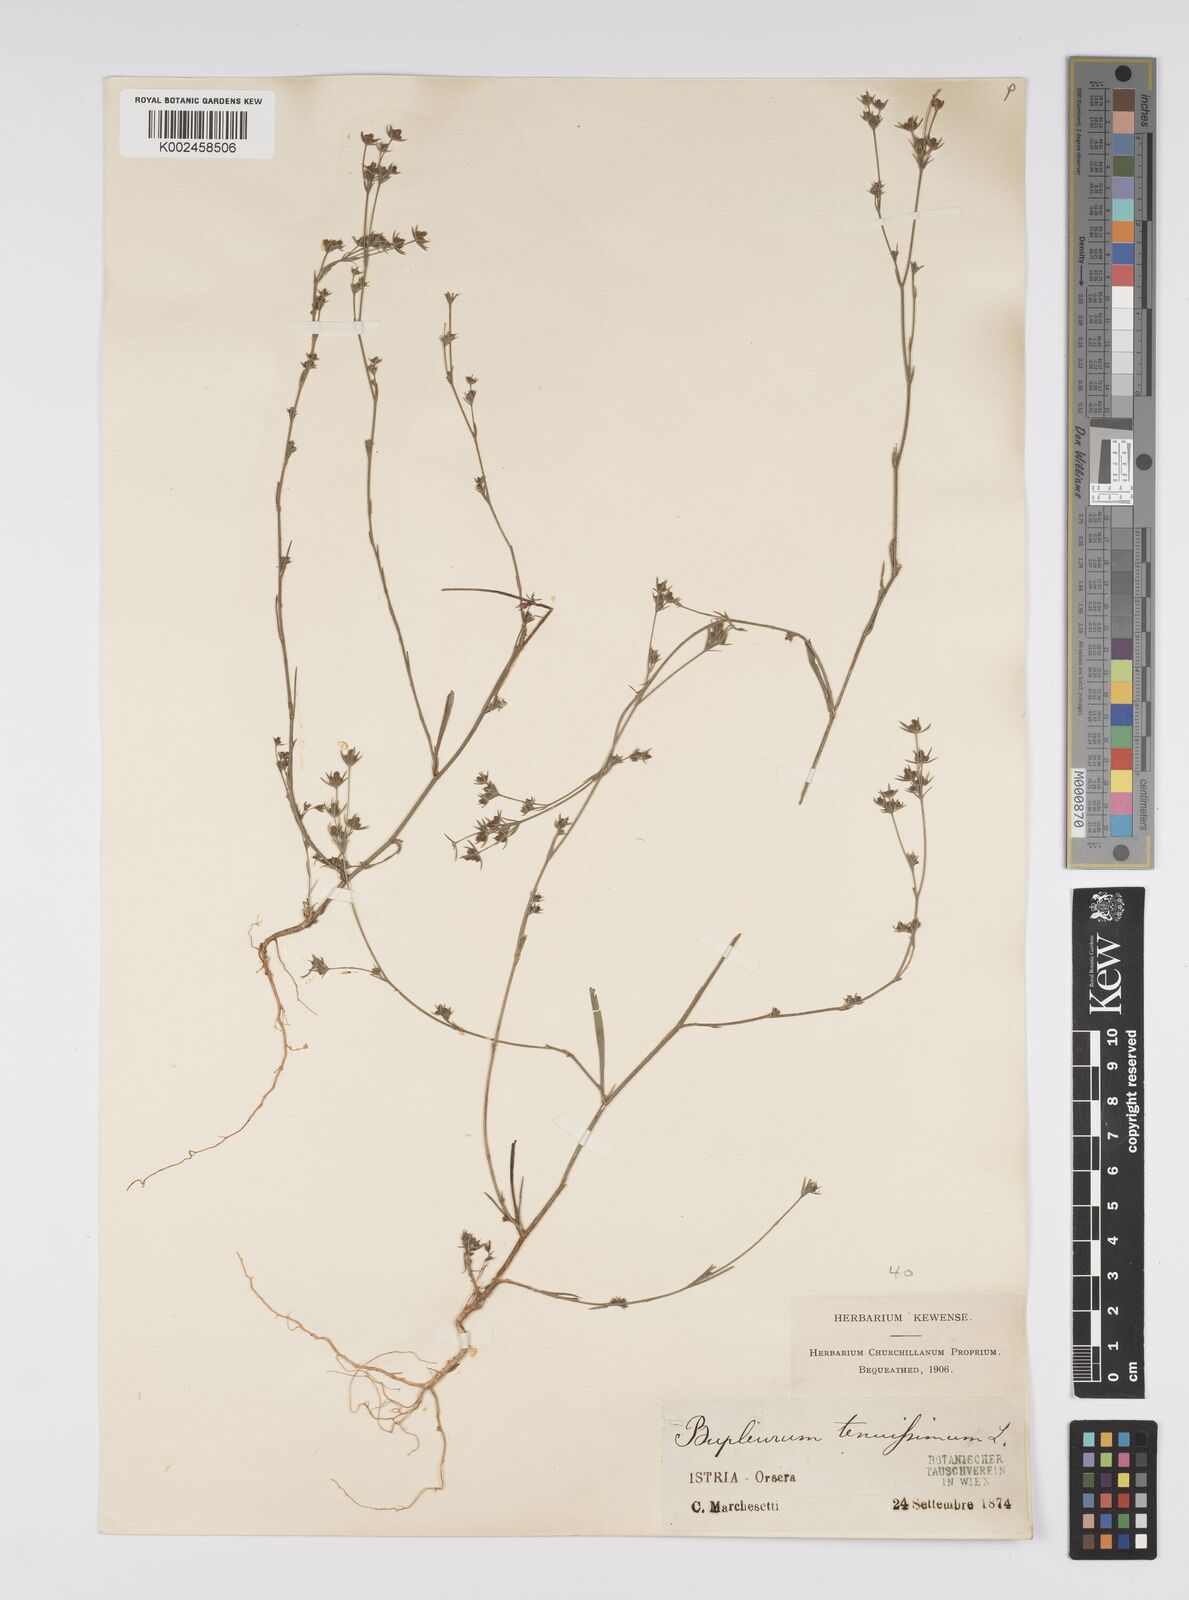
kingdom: Plantae
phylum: Tracheophyta
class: Magnoliopsida
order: Apiales
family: Apiaceae
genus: Bupleurum
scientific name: Bupleurum tenuissimum
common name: Slender hare's-ear
